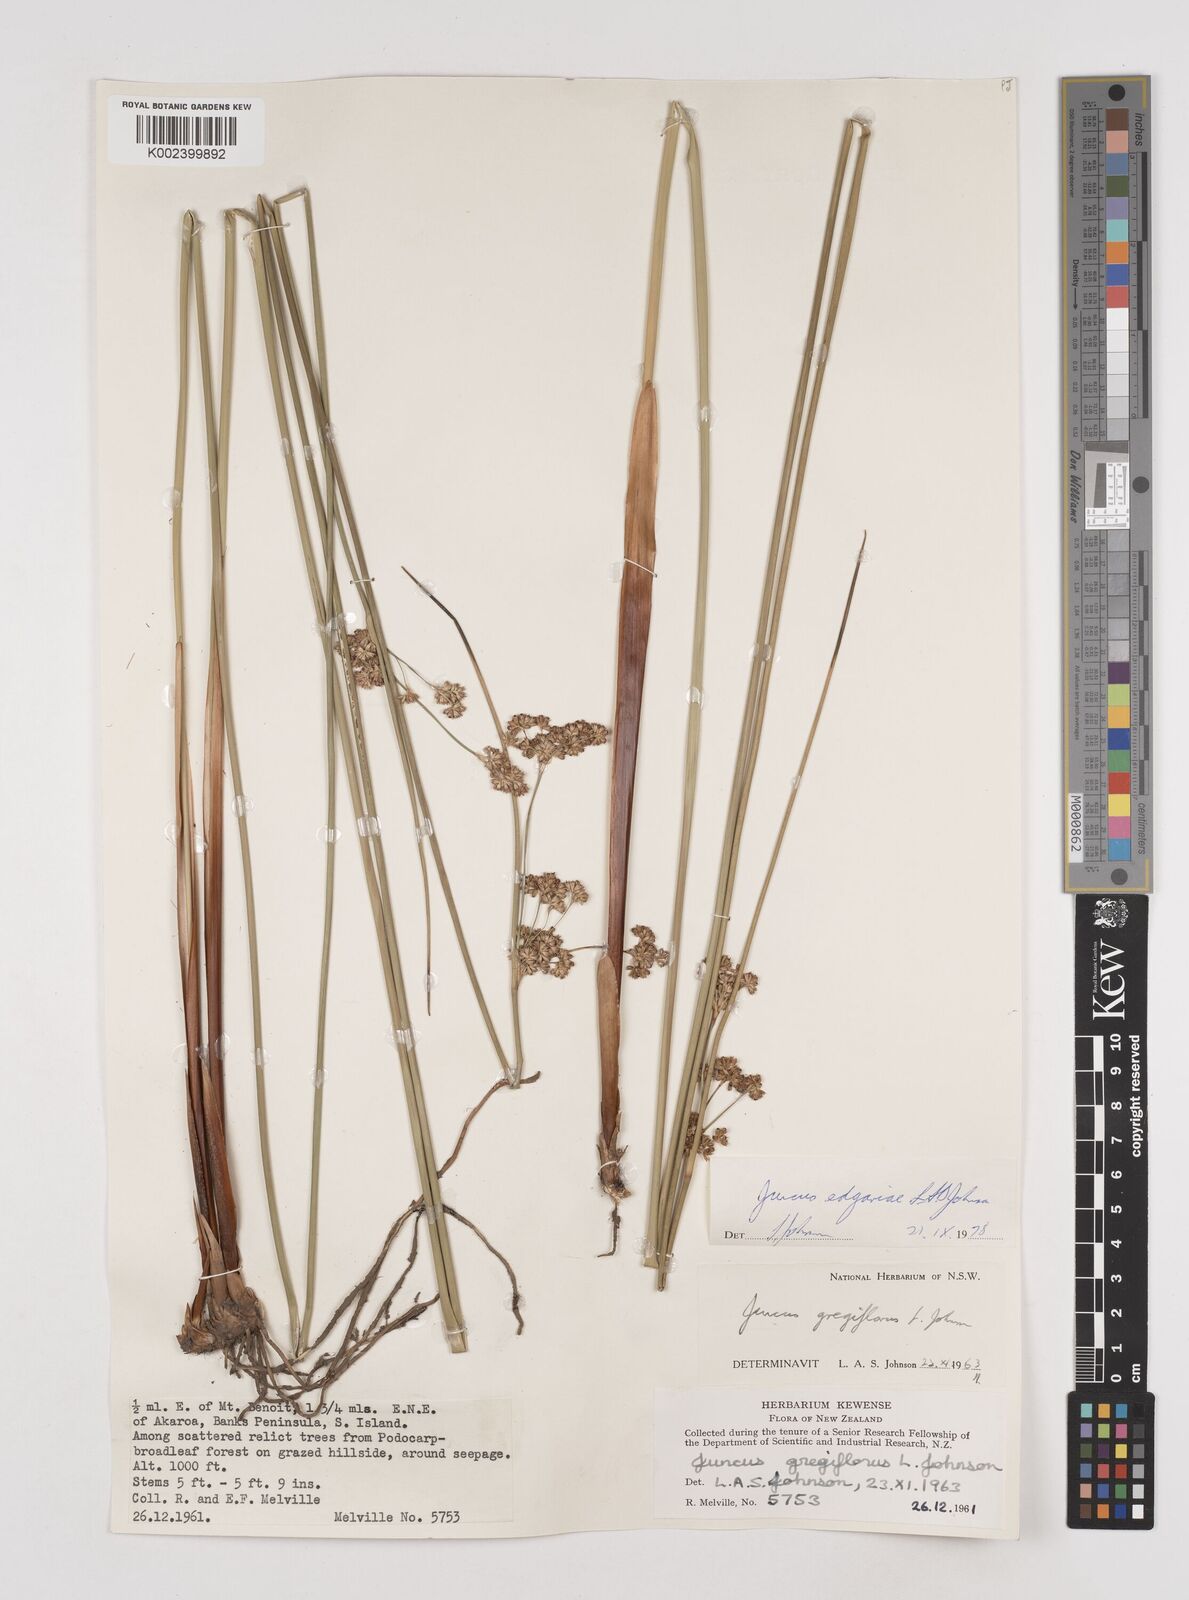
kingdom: Plantae
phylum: Tracheophyta
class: Liliopsida
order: Poales
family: Juncaceae
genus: Juncus
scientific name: Juncus edgariae
